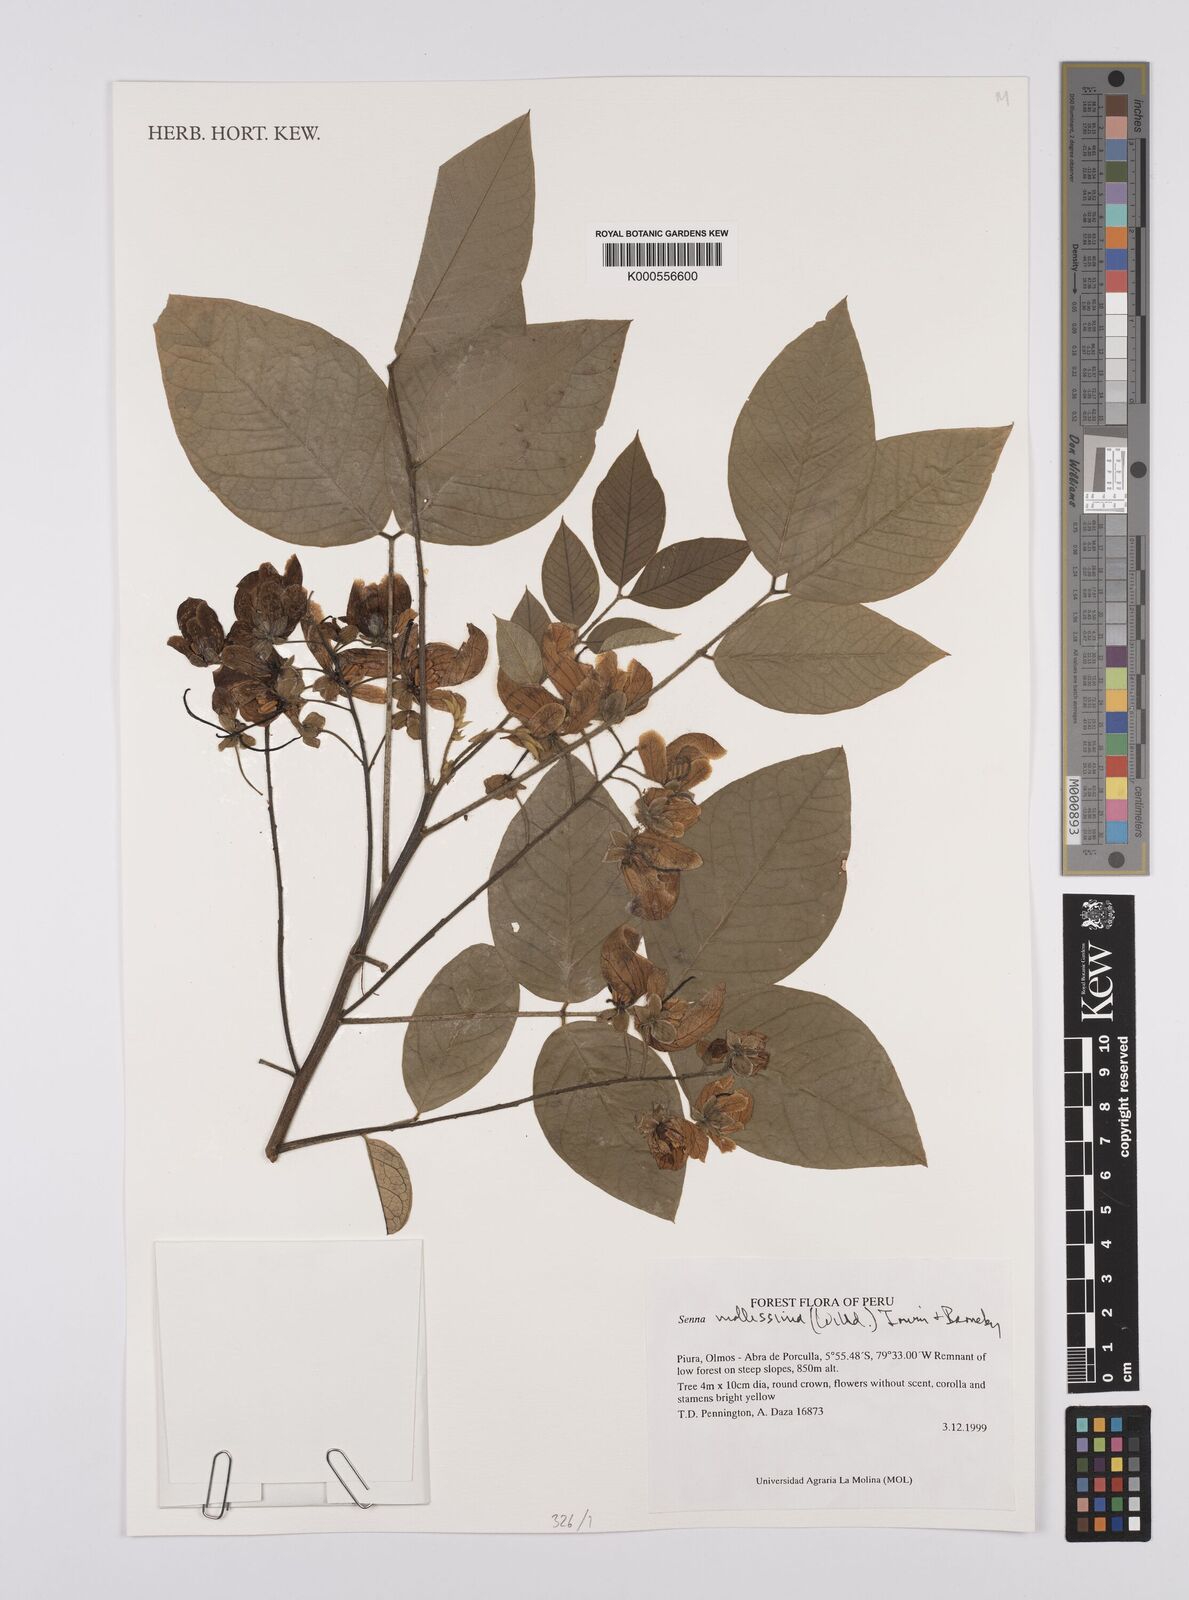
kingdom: Plantae
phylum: Tracheophyta
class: Magnoliopsida
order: Fabales
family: Fabaceae
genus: Senna
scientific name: Senna mollissima
